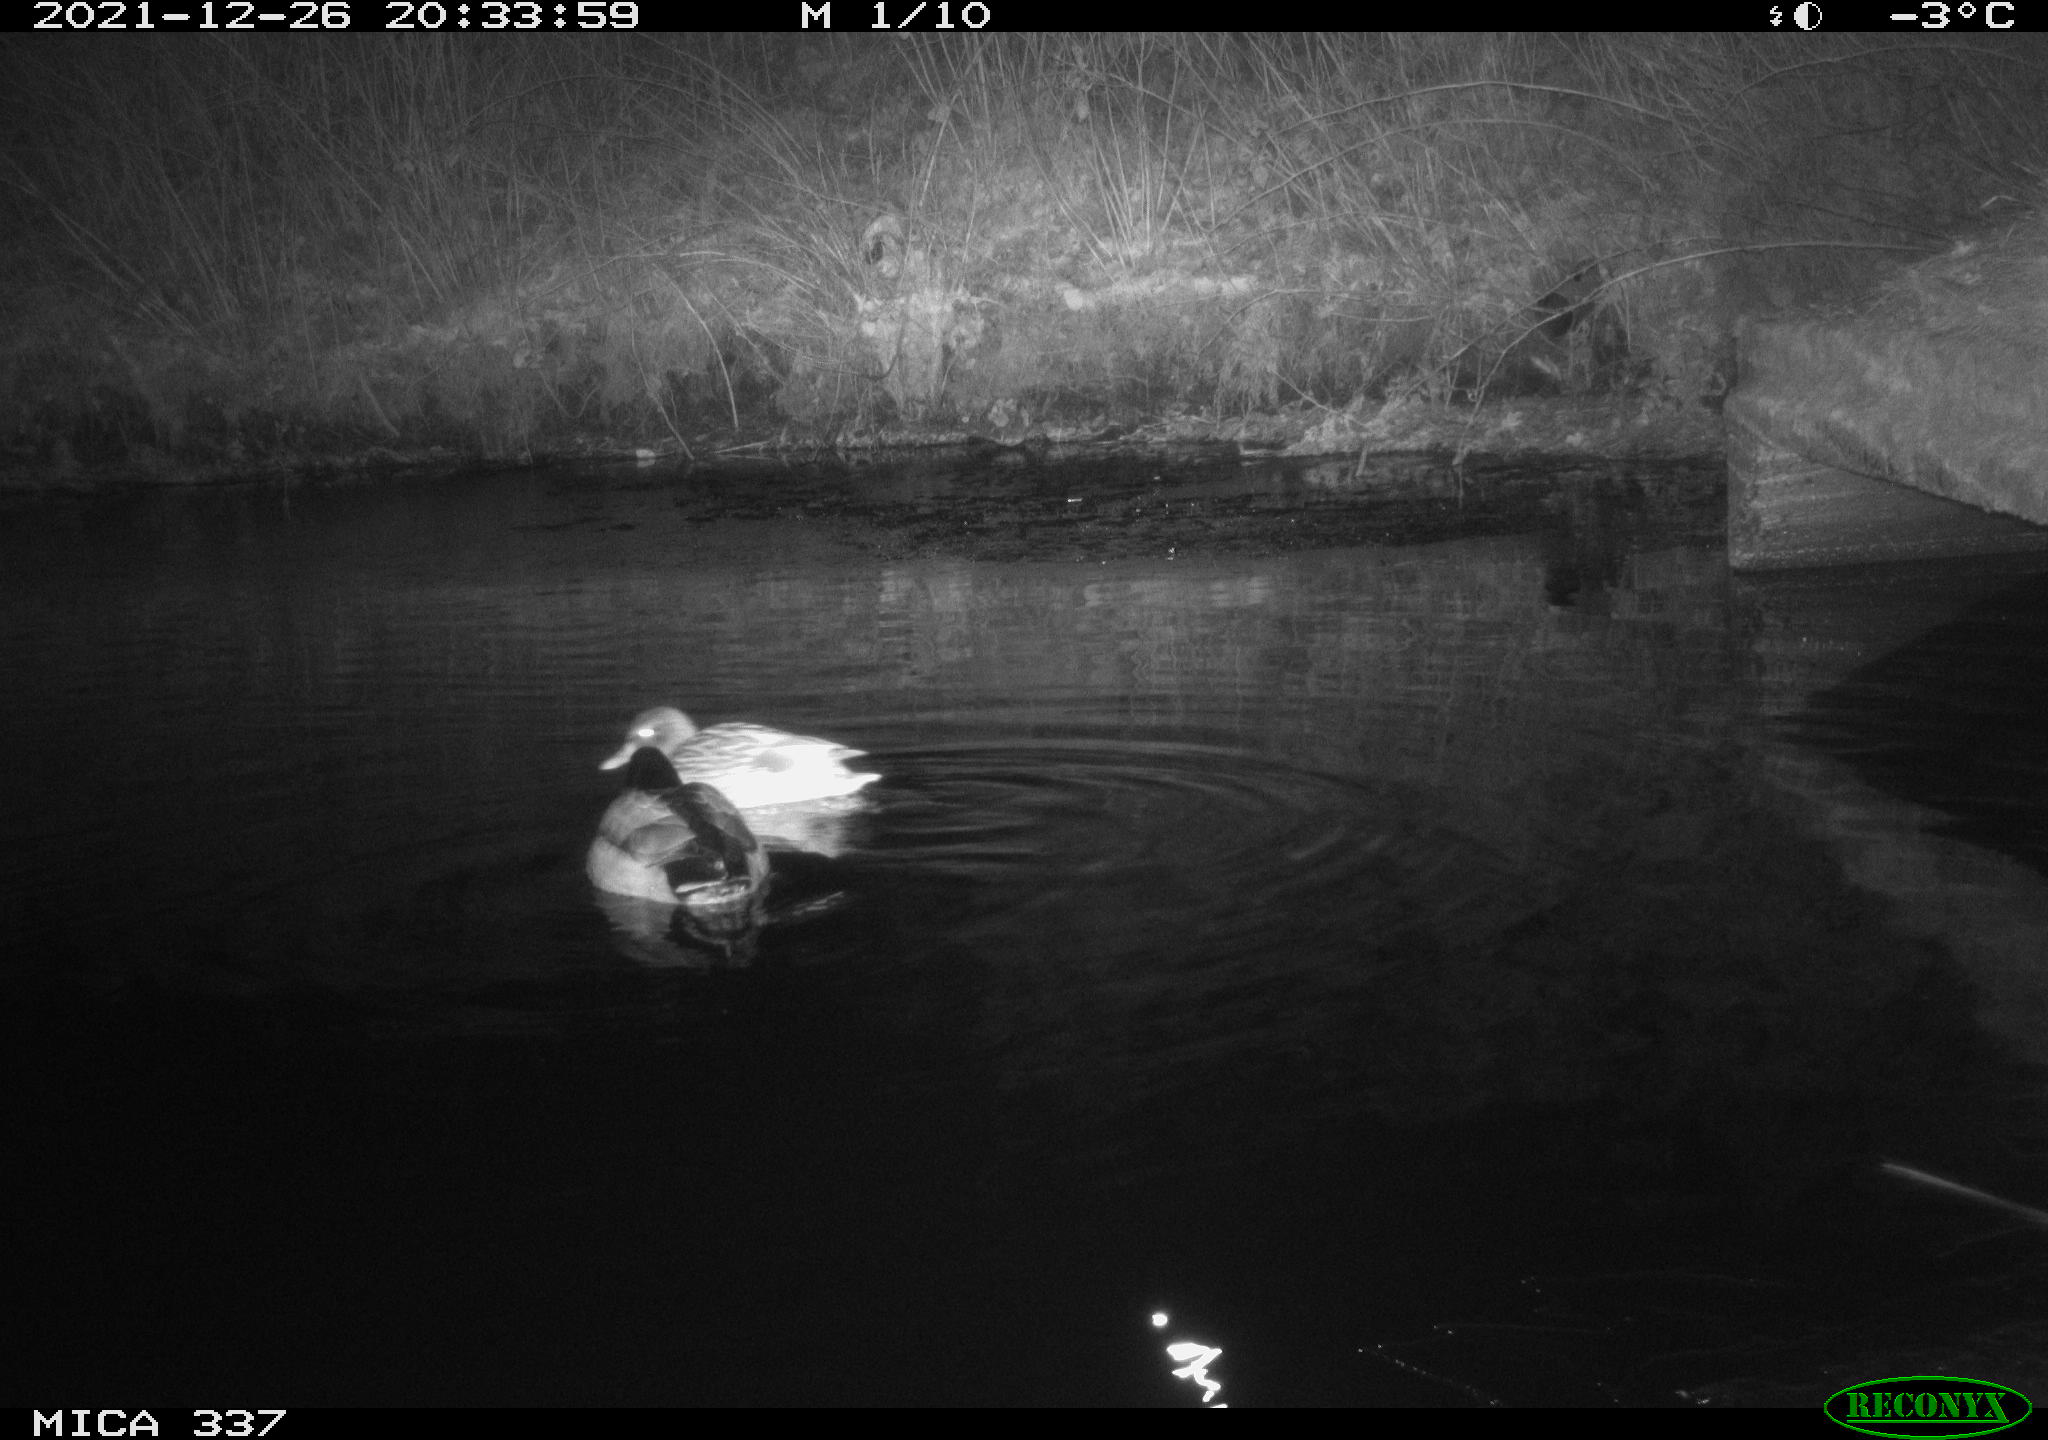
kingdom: Animalia
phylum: Chordata
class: Aves
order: Anseriformes
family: Anatidae
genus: Anas
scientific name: Anas platyrhynchos
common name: Mallard
